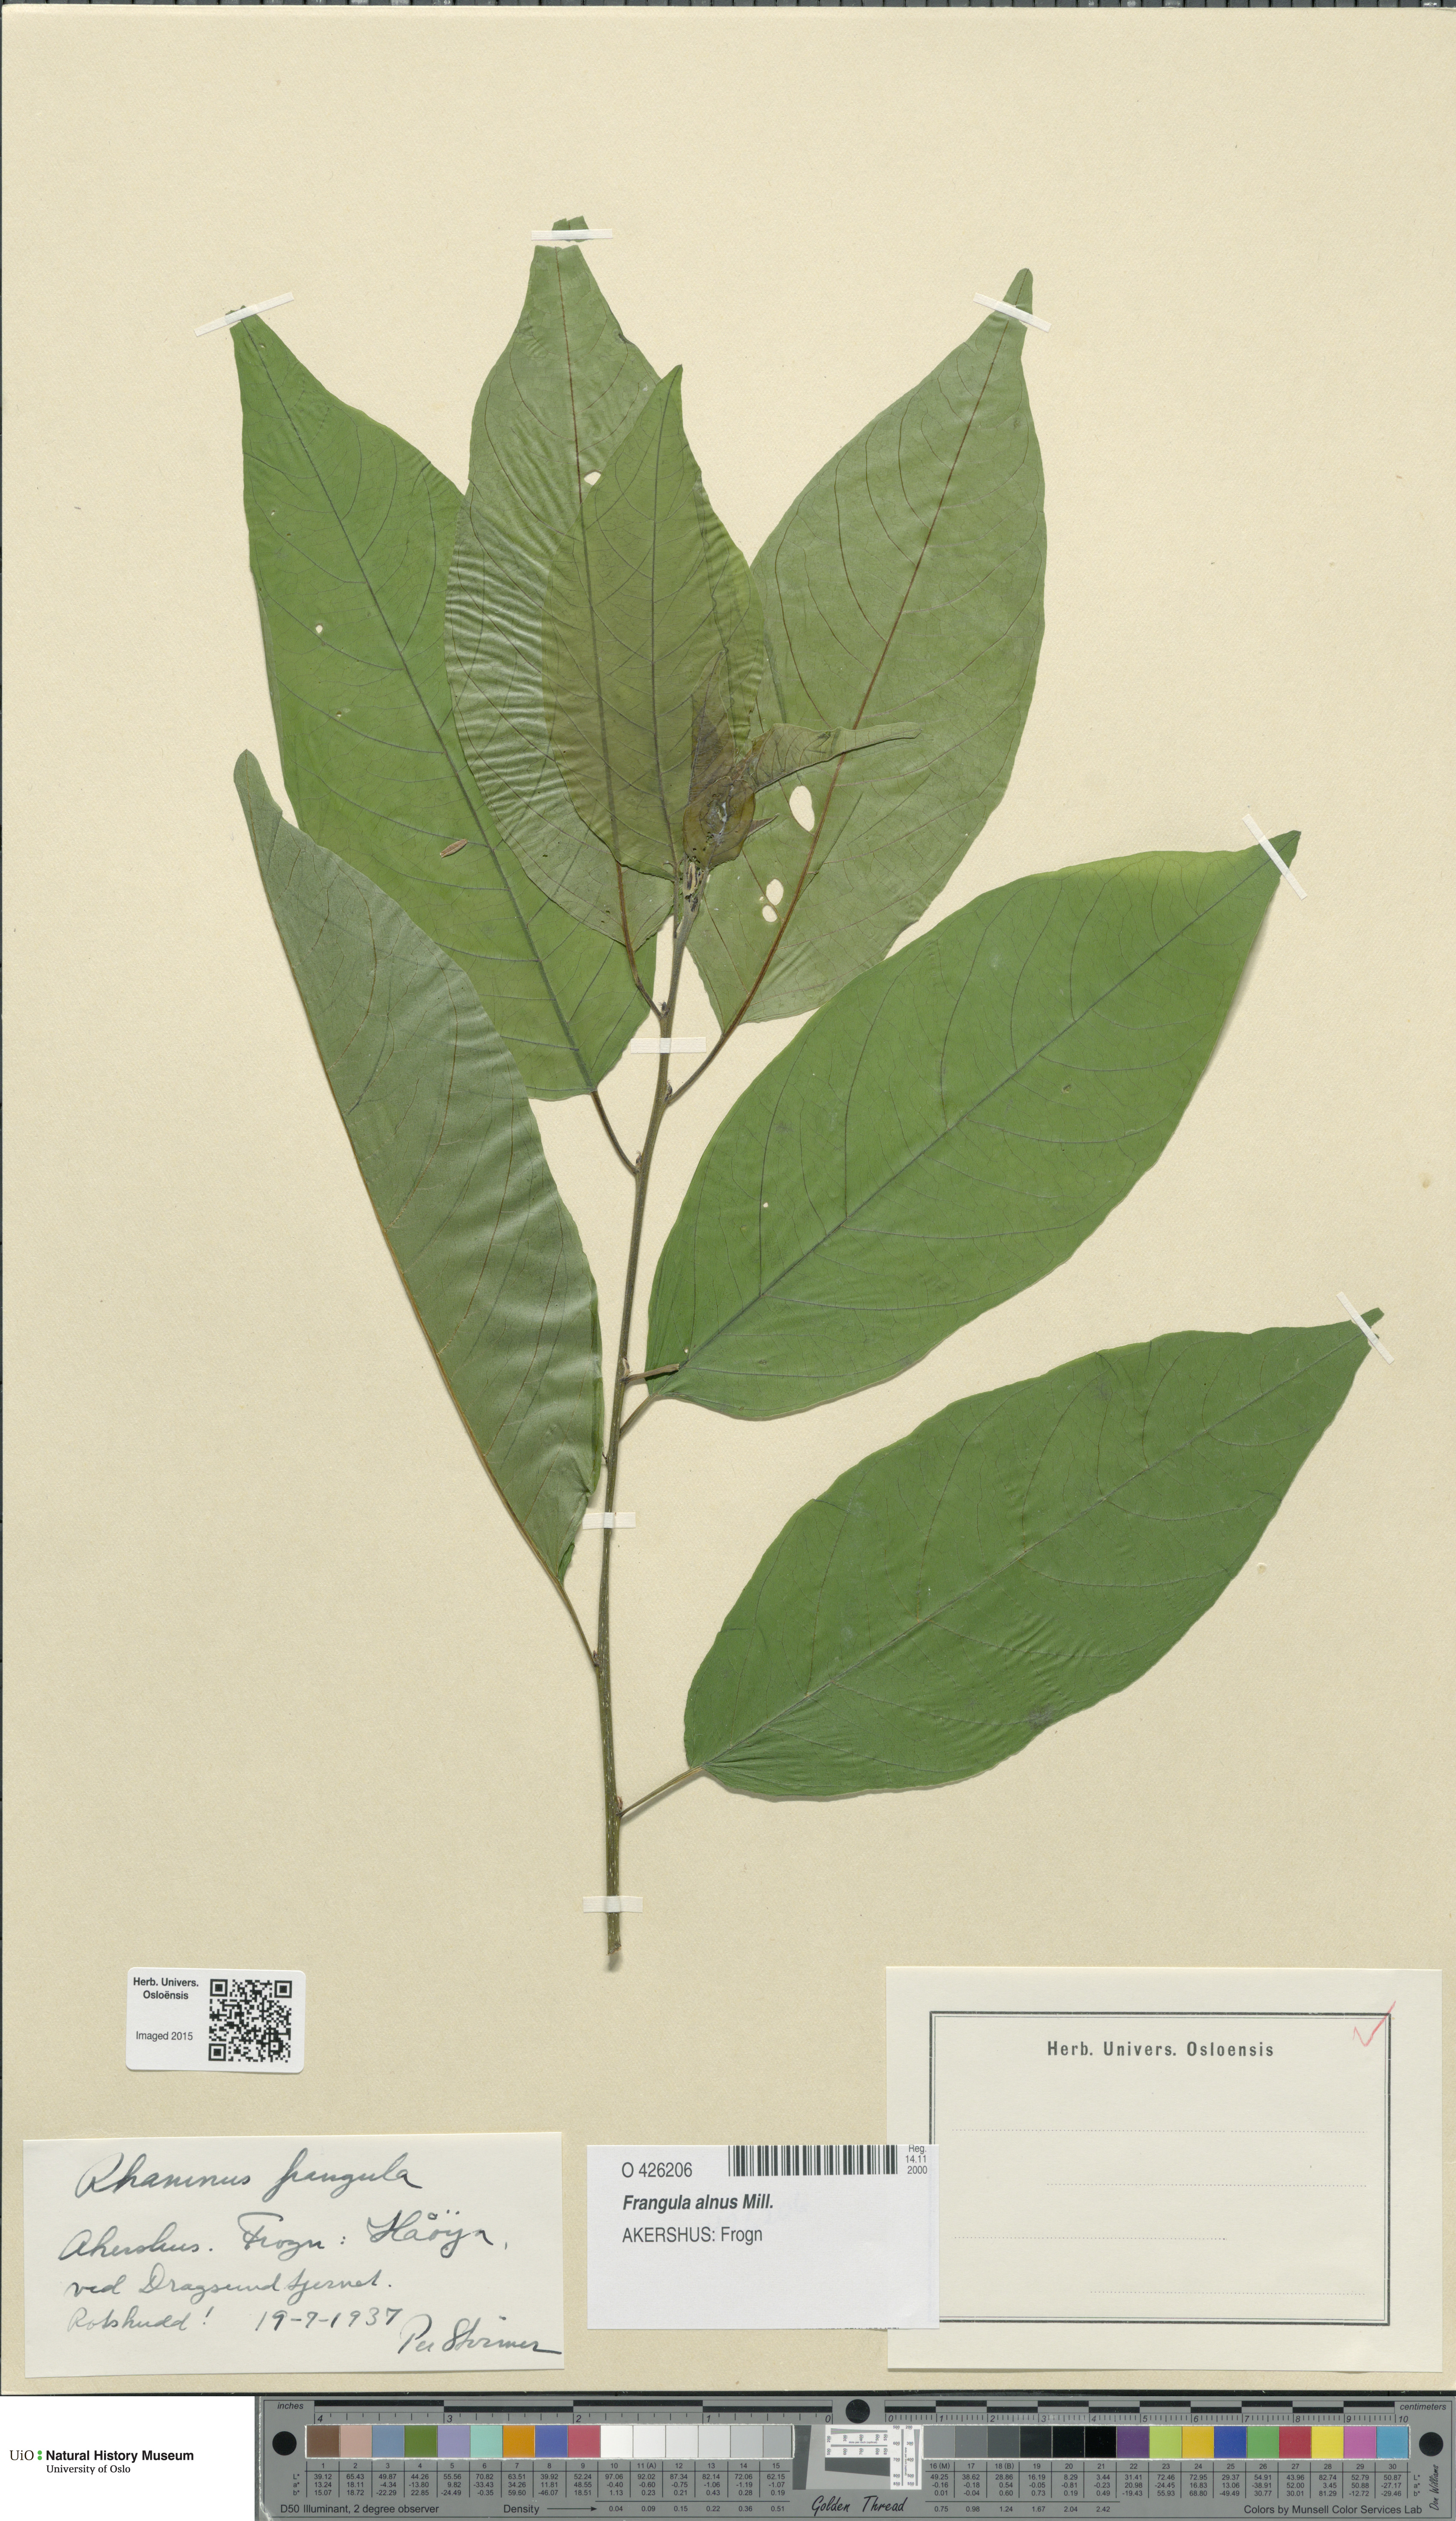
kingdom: Plantae
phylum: Tracheophyta
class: Magnoliopsida
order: Rosales
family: Rhamnaceae
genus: Frangula
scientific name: Frangula alnus
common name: Alder buckthorn
